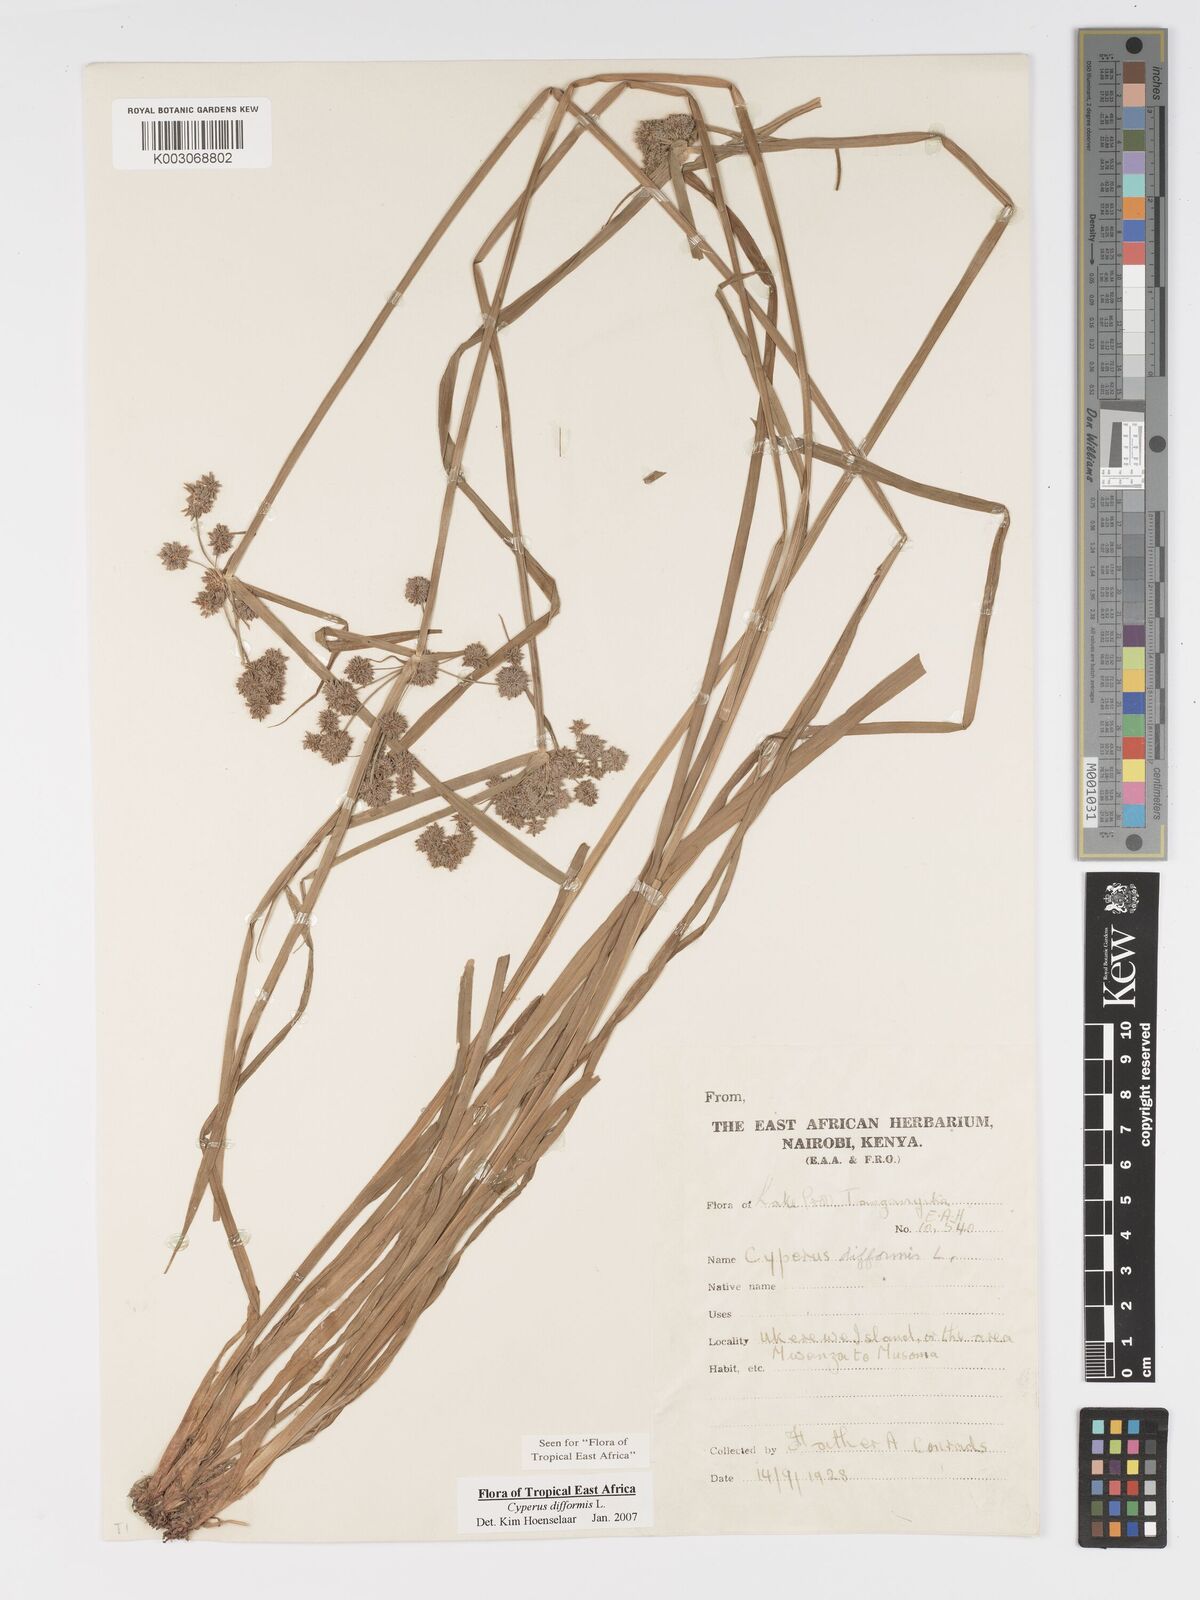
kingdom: Plantae
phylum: Tracheophyta
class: Liliopsida
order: Poales
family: Cyperaceae
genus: Cyperus
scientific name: Cyperus difformis
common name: Variable flatsedge
